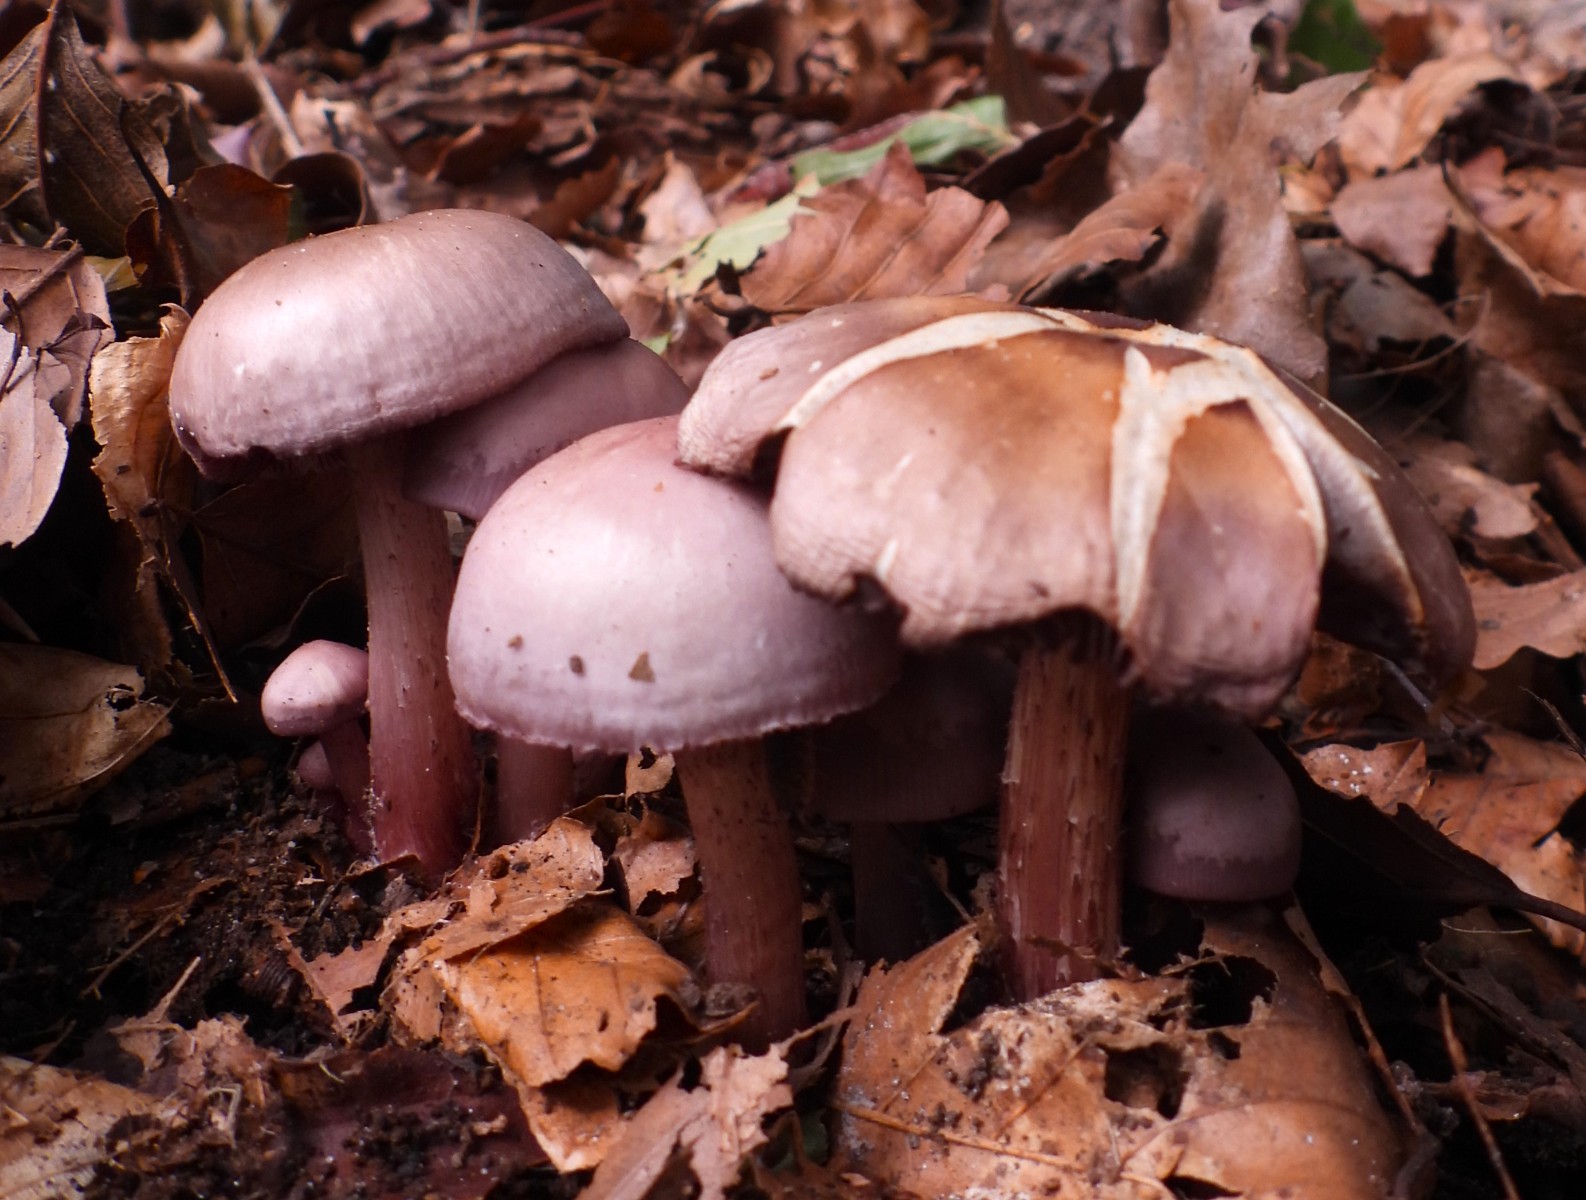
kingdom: Fungi
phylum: Basidiomycota
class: Agaricomycetes
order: Agaricales
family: Mycenaceae
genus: Mycena
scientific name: Mycena pelianthina
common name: mørkbladet huesvamp
